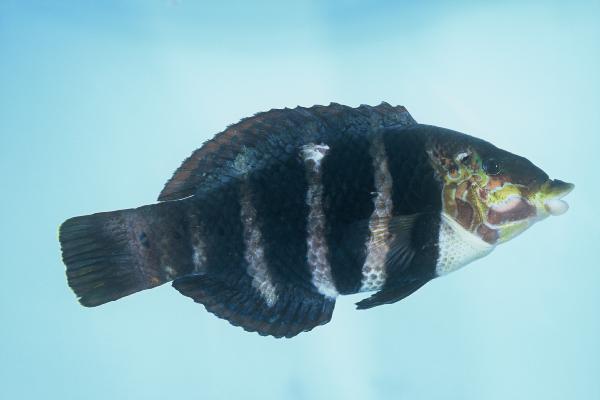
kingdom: Animalia
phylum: Chordata
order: Perciformes
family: Labridae
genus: Hemigymnus
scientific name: Hemigymnus fasciatus
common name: Barred thicklip
